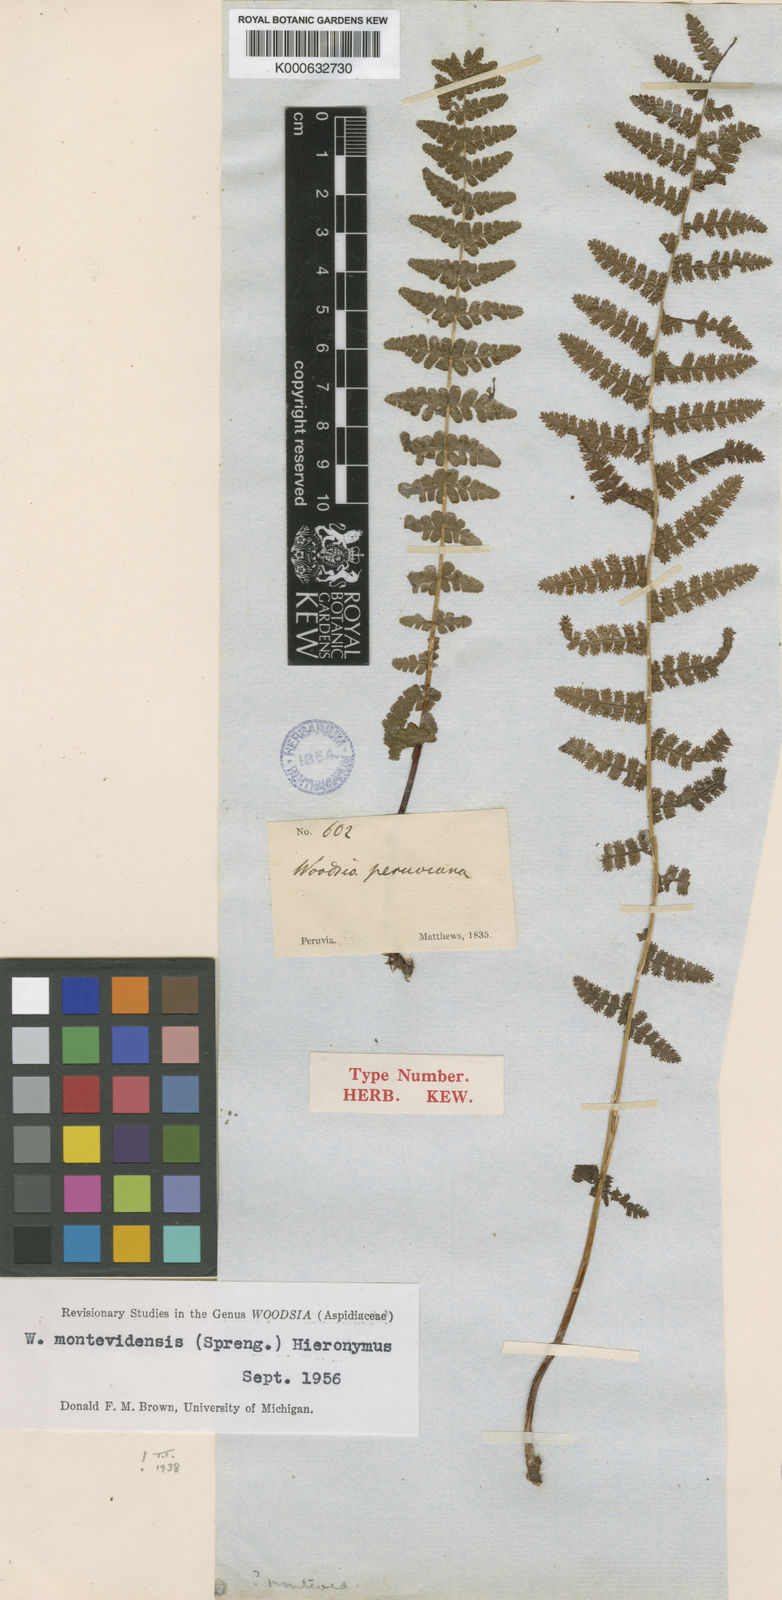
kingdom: Plantae
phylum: Tracheophyta
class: Polypodiopsida
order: Polypodiales
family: Woodsiaceae
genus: Physematium
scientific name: Physematium montevidense
